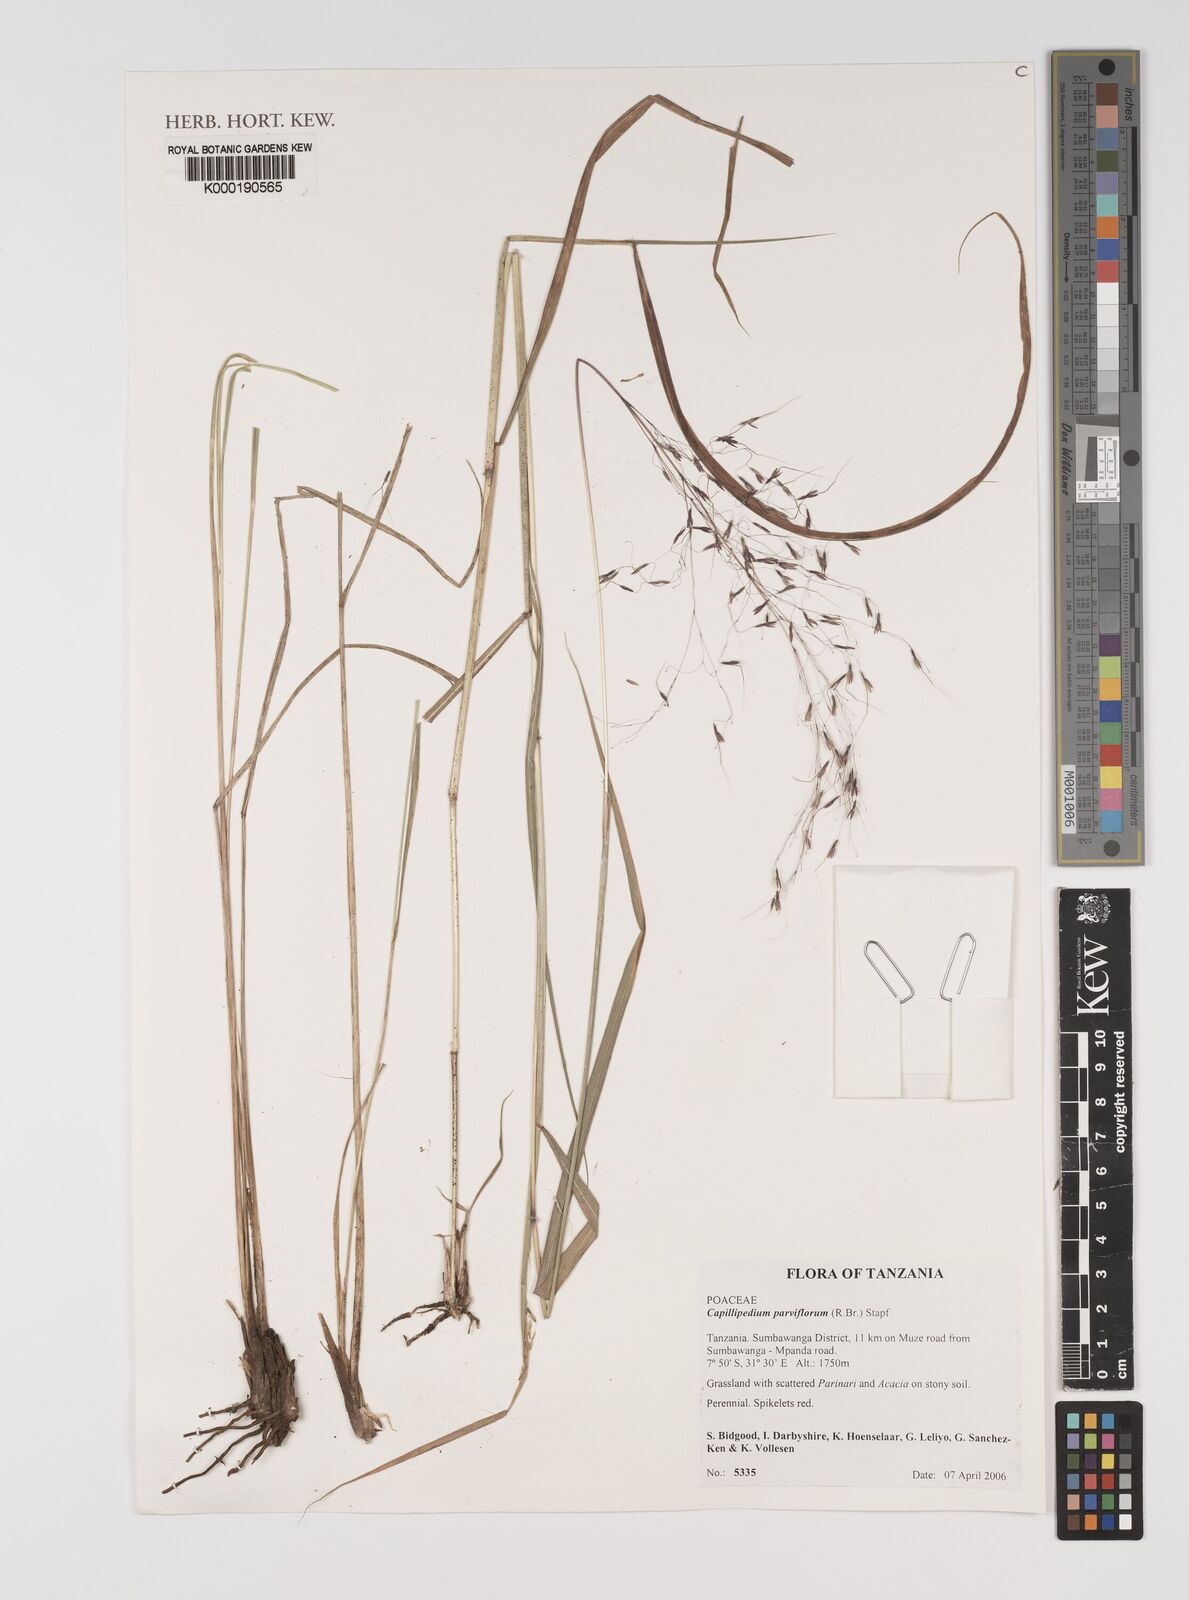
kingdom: Plantae
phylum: Tracheophyta
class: Liliopsida
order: Poales
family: Poaceae
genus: Capillipedium
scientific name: Capillipedium parviflorum
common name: Golden-beard
